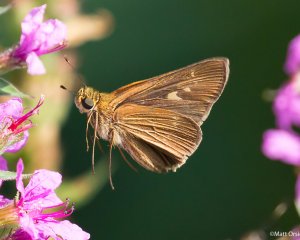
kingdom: Animalia
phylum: Arthropoda
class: Insecta
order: Lepidoptera
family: Hesperiidae
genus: Panoquina
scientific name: Panoquina ocola
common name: Ocola Skipper
